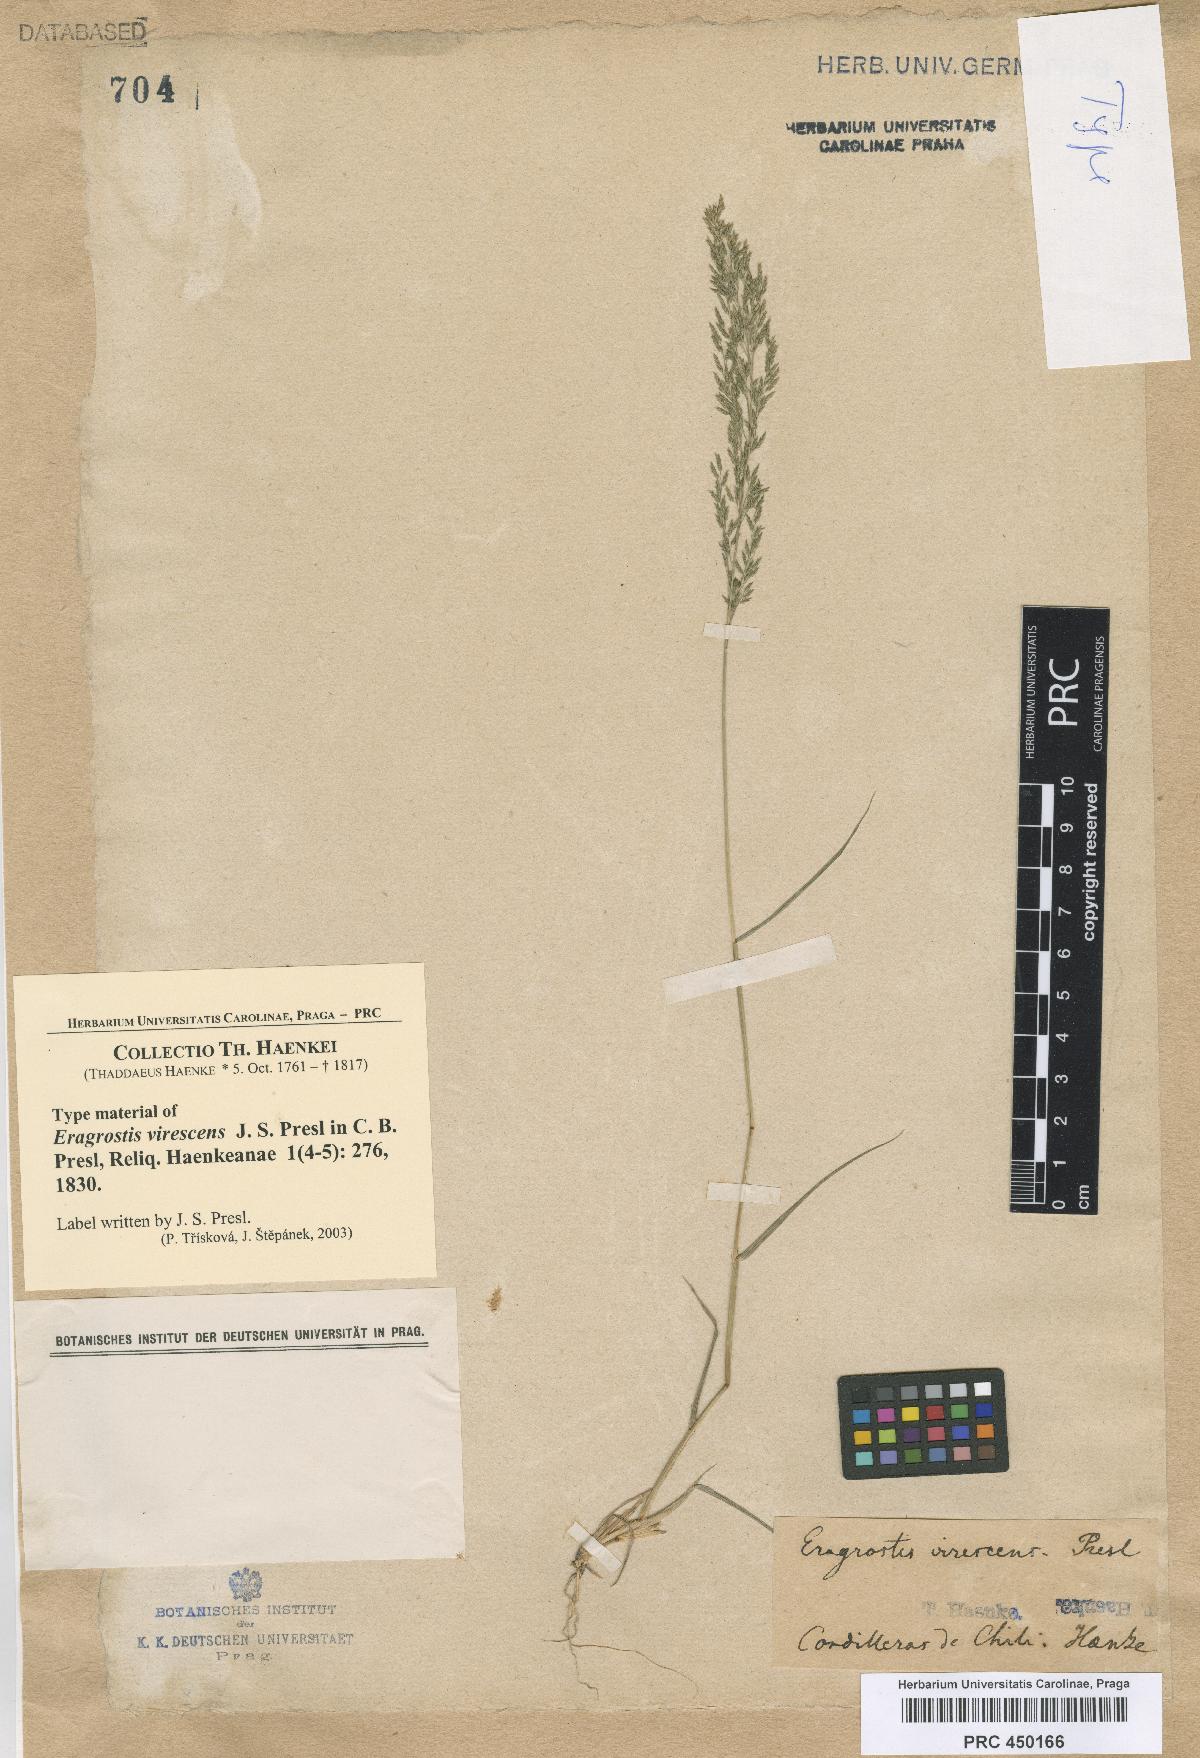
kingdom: Plantae
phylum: Tracheophyta
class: Liliopsida
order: Poales
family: Poaceae
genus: Eragrostis
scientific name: Eragrostis virescens
